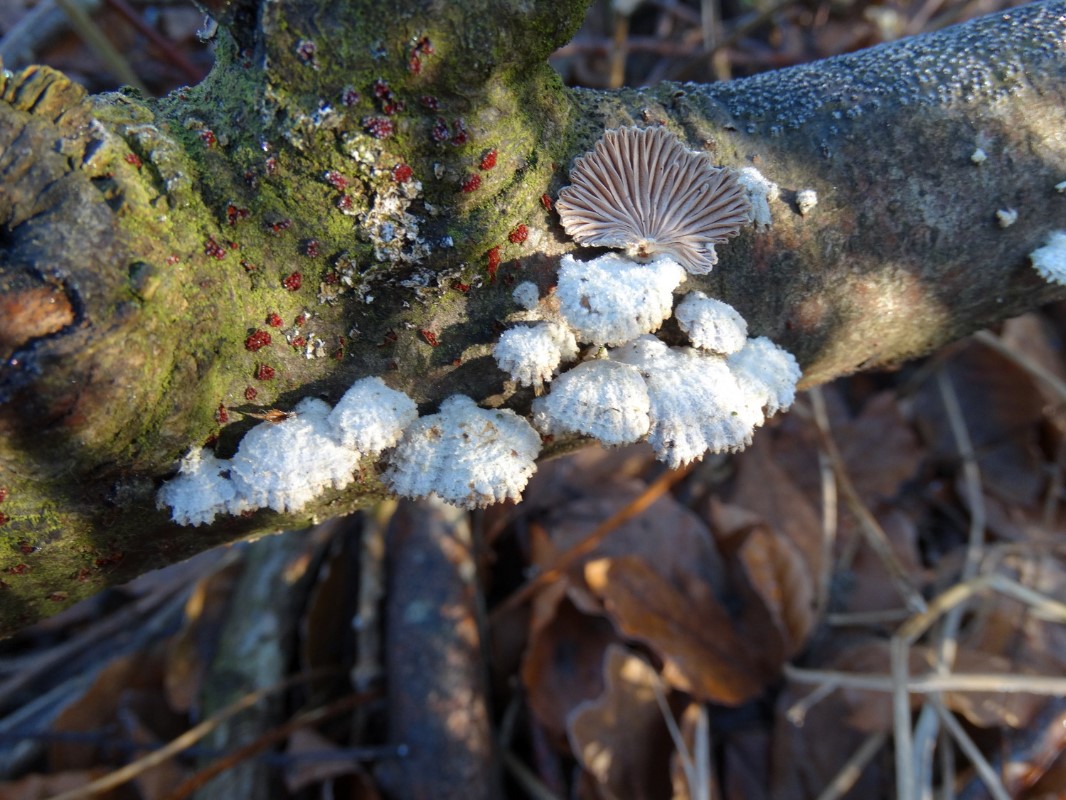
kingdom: Fungi
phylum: Basidiomycota
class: Agaricomycetes
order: Agaricales
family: Schizophyllaceae
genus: Schizophyllum
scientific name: Schizophyllum commune
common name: kløvblad
